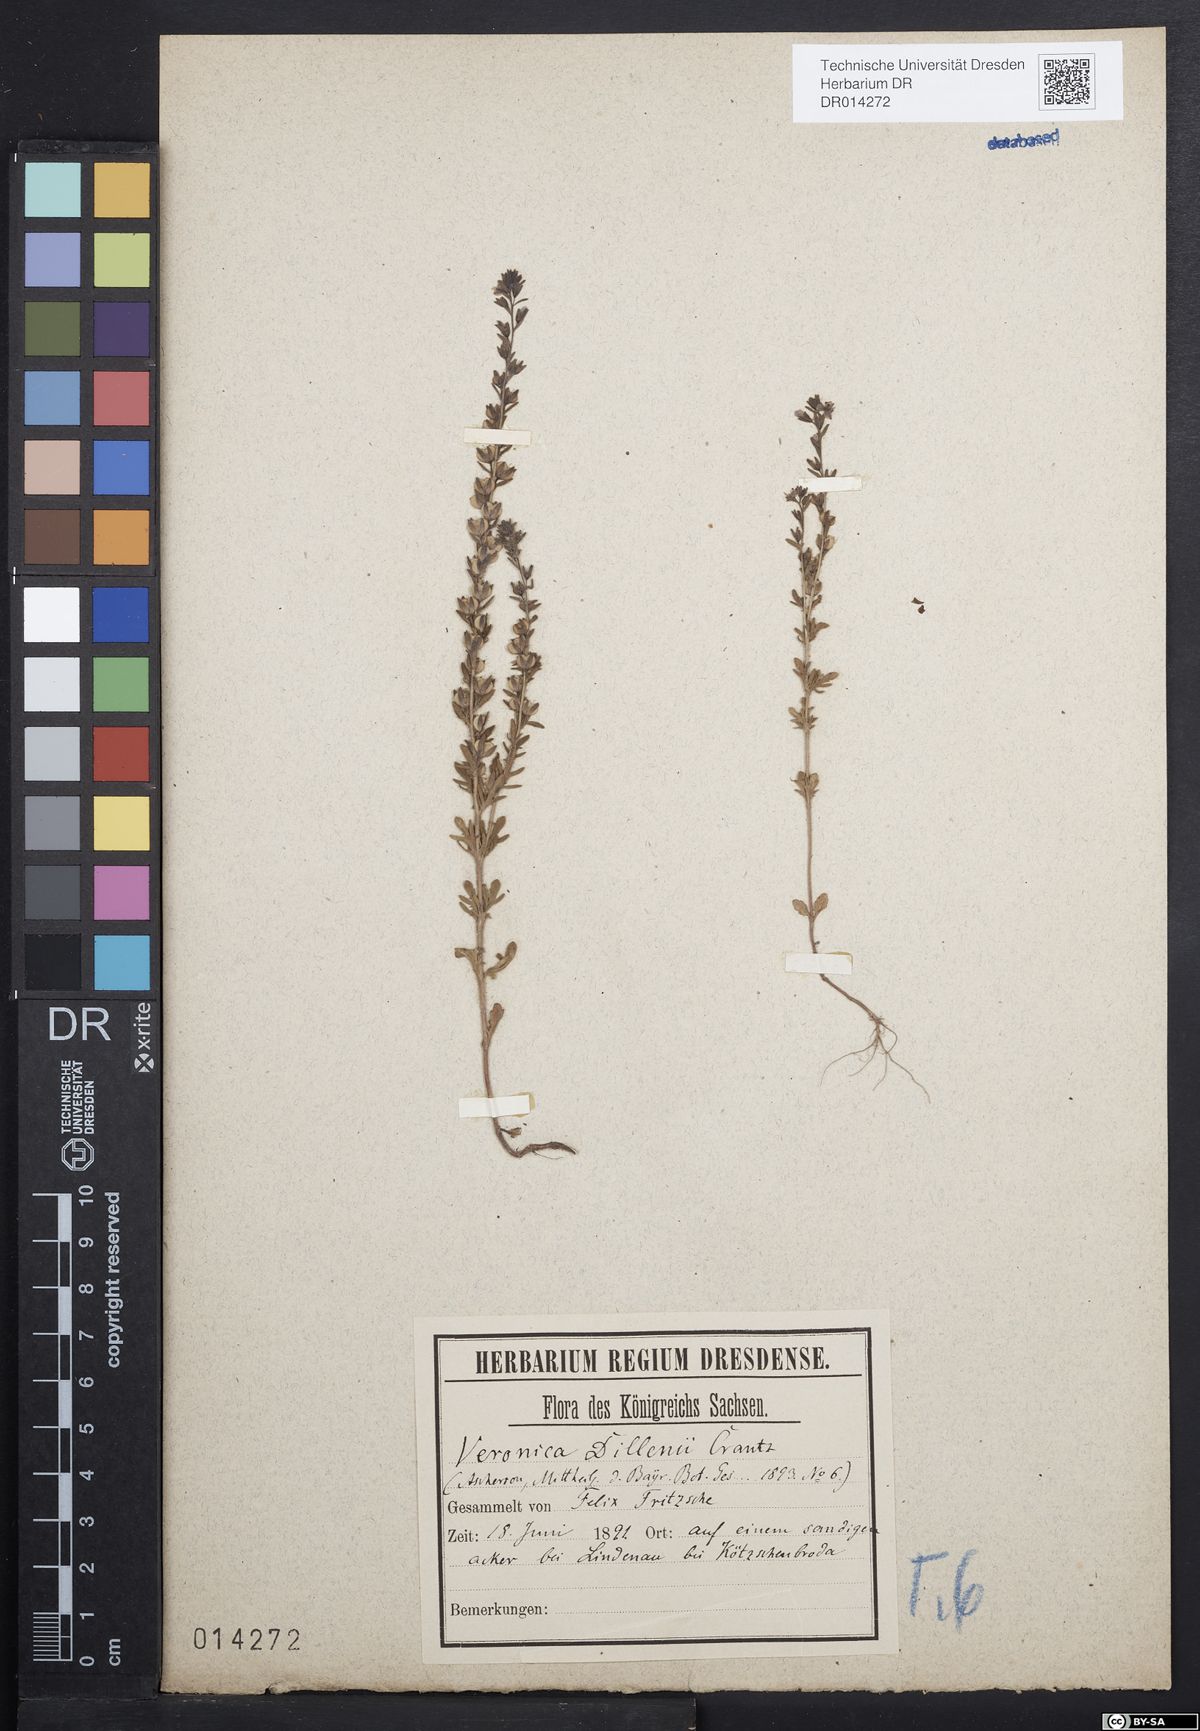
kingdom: Plantae
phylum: Tracheophyta
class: Magnoliopsida
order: Lamiales
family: Plantaginaceae
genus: Veronica
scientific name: Veronica dillenii
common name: Dillenius' speedwell
